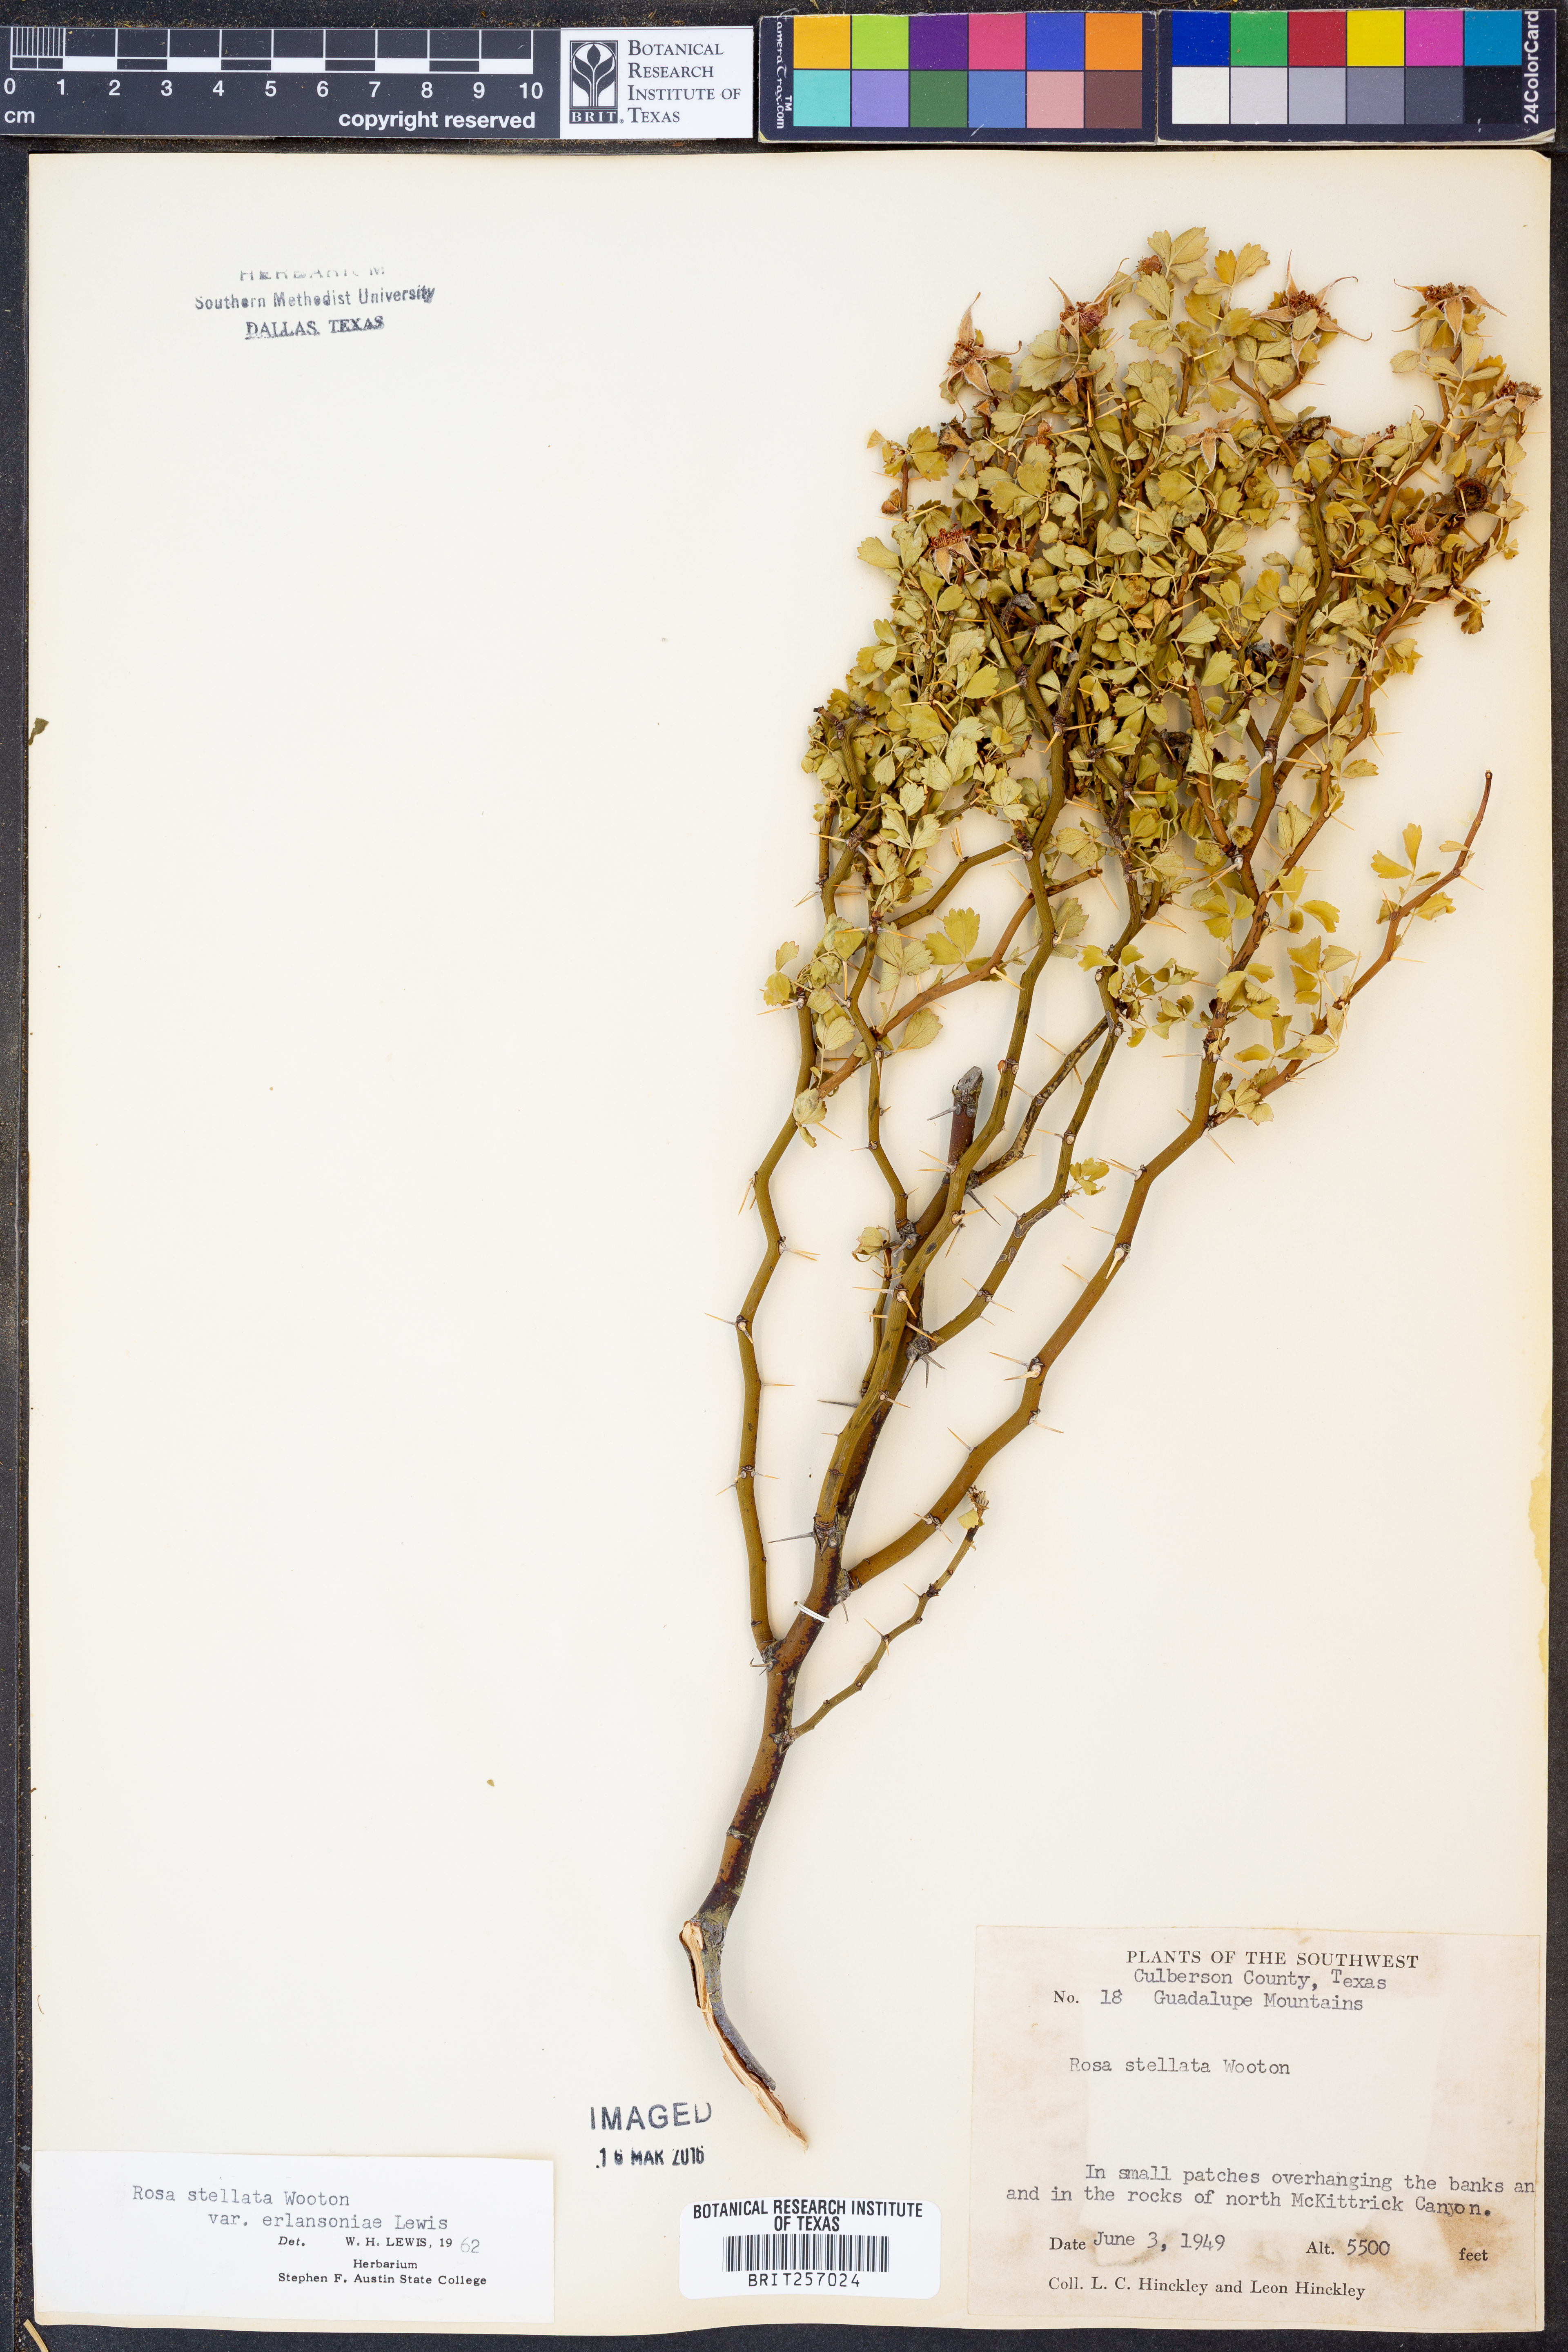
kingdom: Plantae
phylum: Tracheophyta
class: Magnoliopsida
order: Rosales
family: Rosaceae
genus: Rosa
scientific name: Rosa stellata
